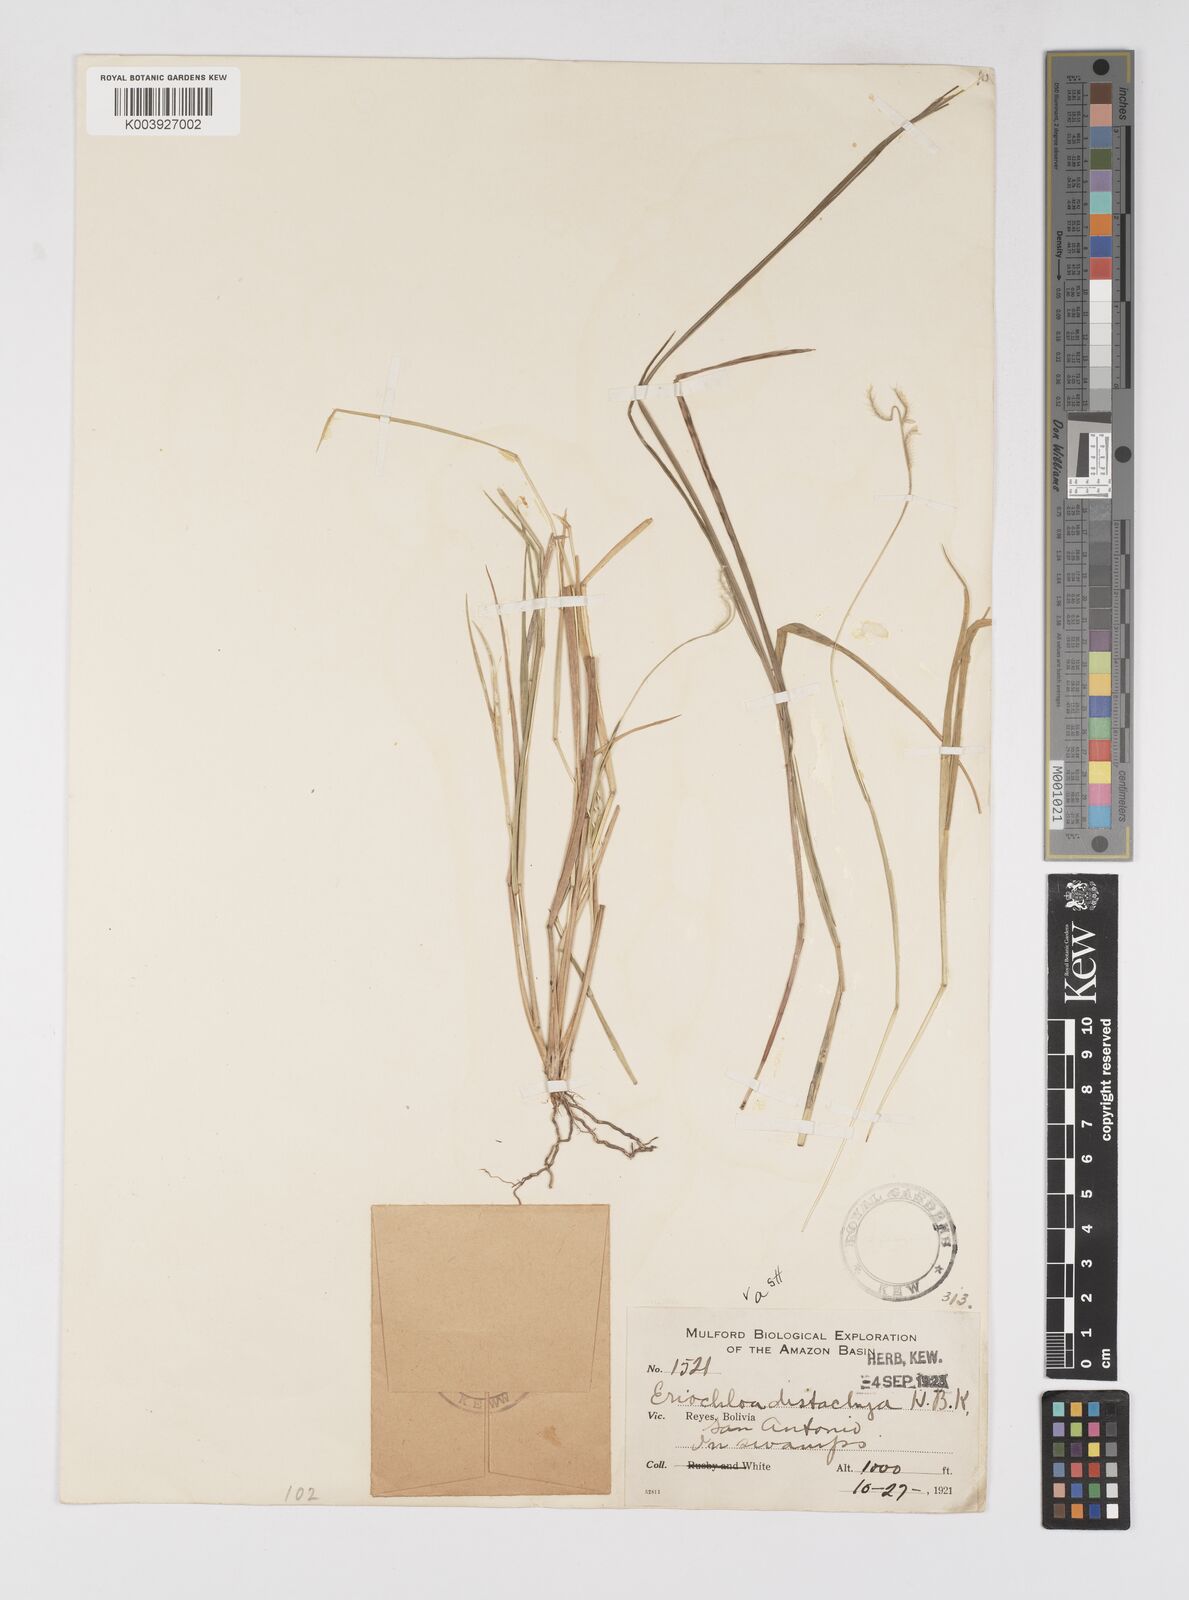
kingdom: Plantae
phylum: Tracheophyta
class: Liliopsida
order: Poales
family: Poaceae
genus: Eriochloa
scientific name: Eriochloa distachya
